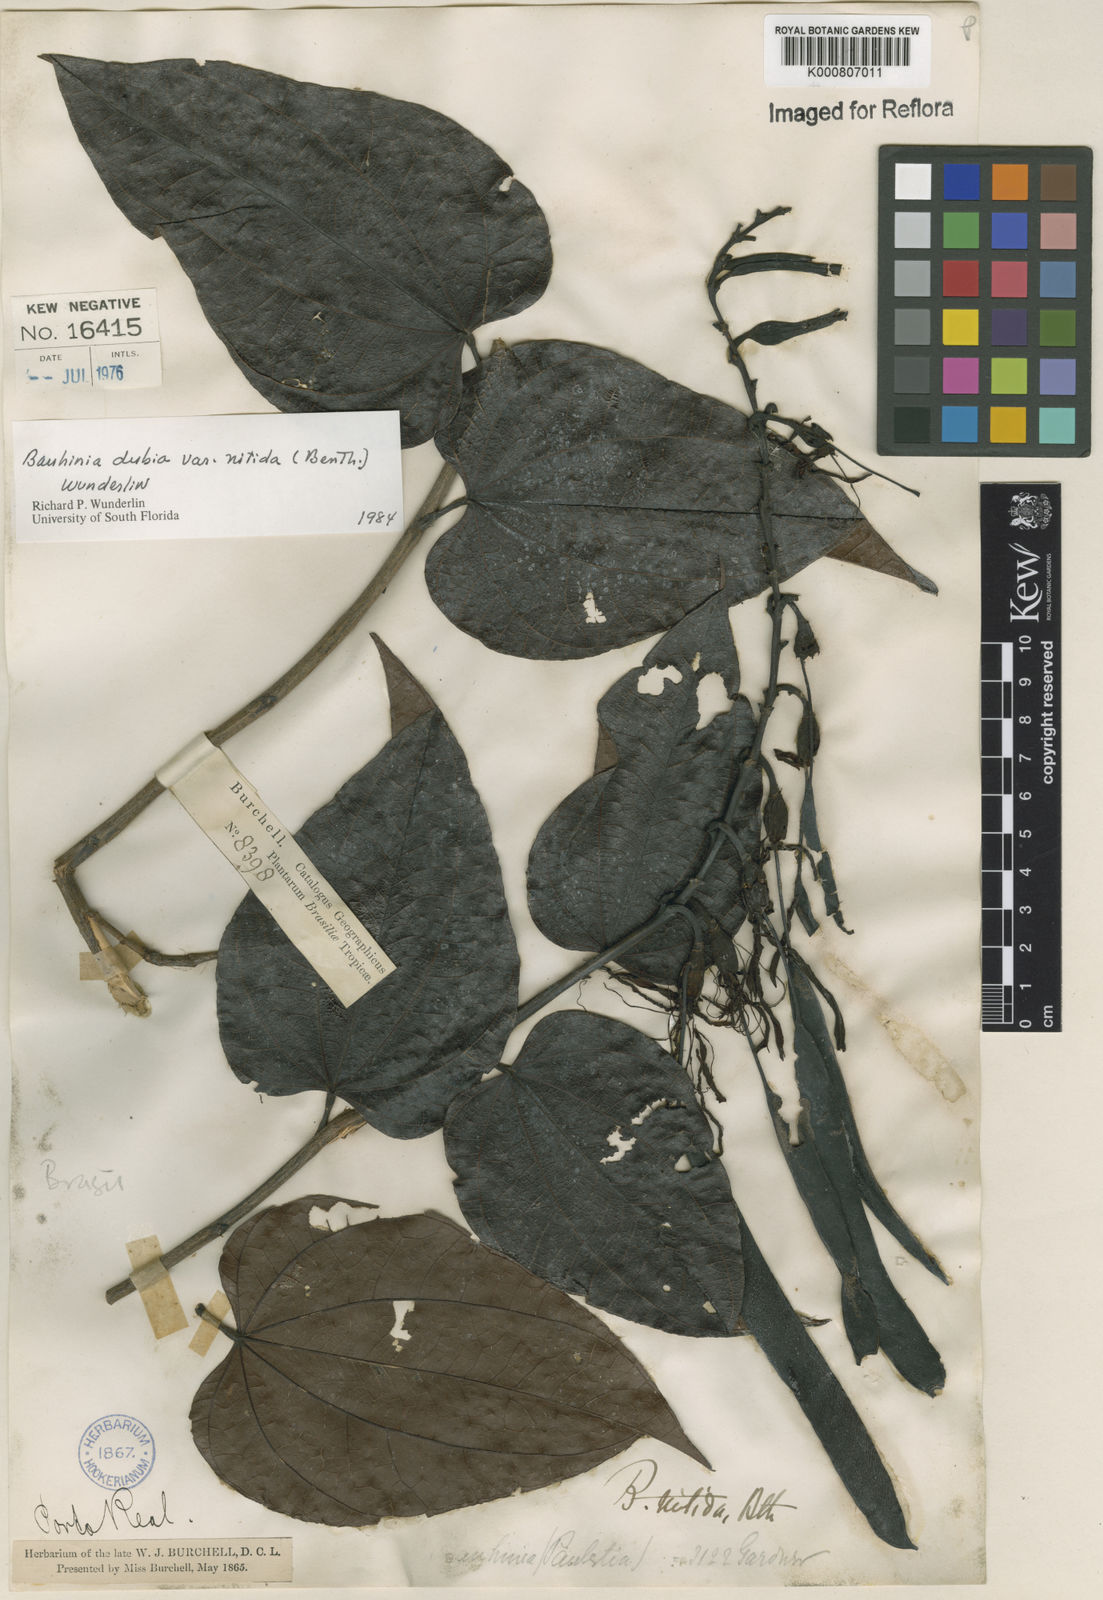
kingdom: Plantae
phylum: Tracheophyta
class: Magnoliopsida
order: Fabales
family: Fabaceae
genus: Bauhinia
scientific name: Bauhinia dubia
